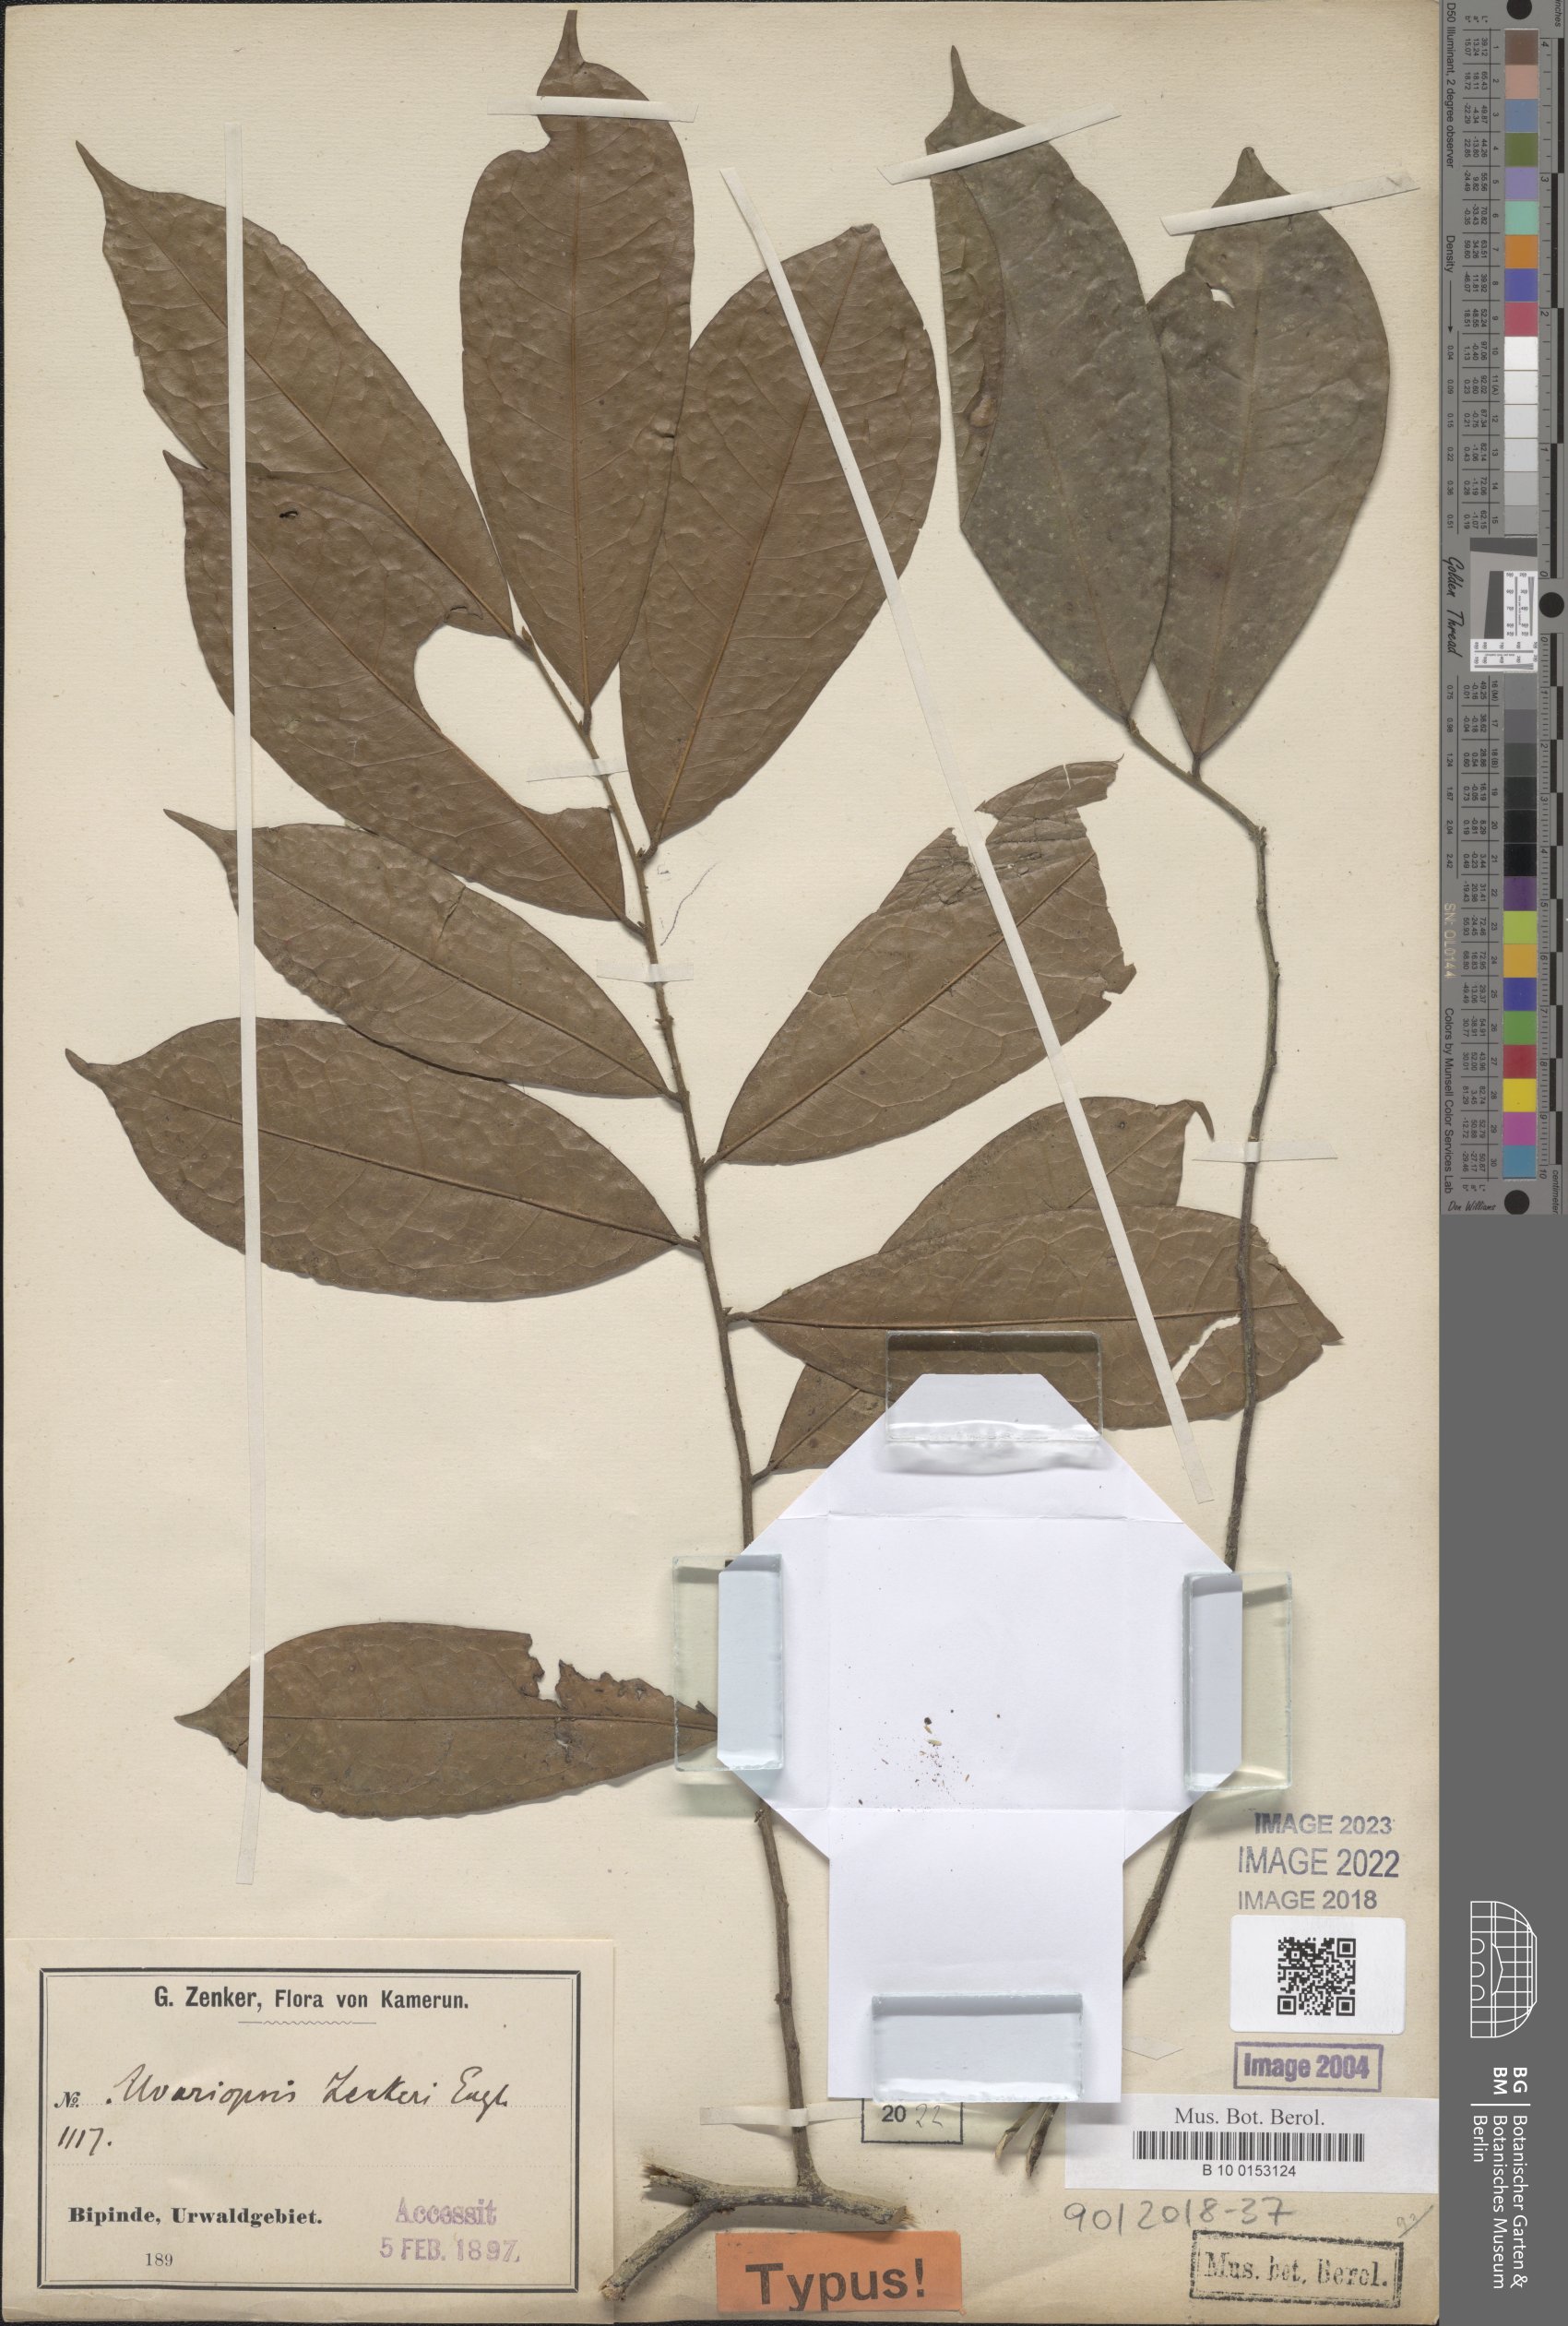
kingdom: Plantae
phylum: Tracheophyta
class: Magnoliopsida
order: Magnoliales
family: Annonaceae
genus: Uvariopsis
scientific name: Uvariopsis zenkeri
